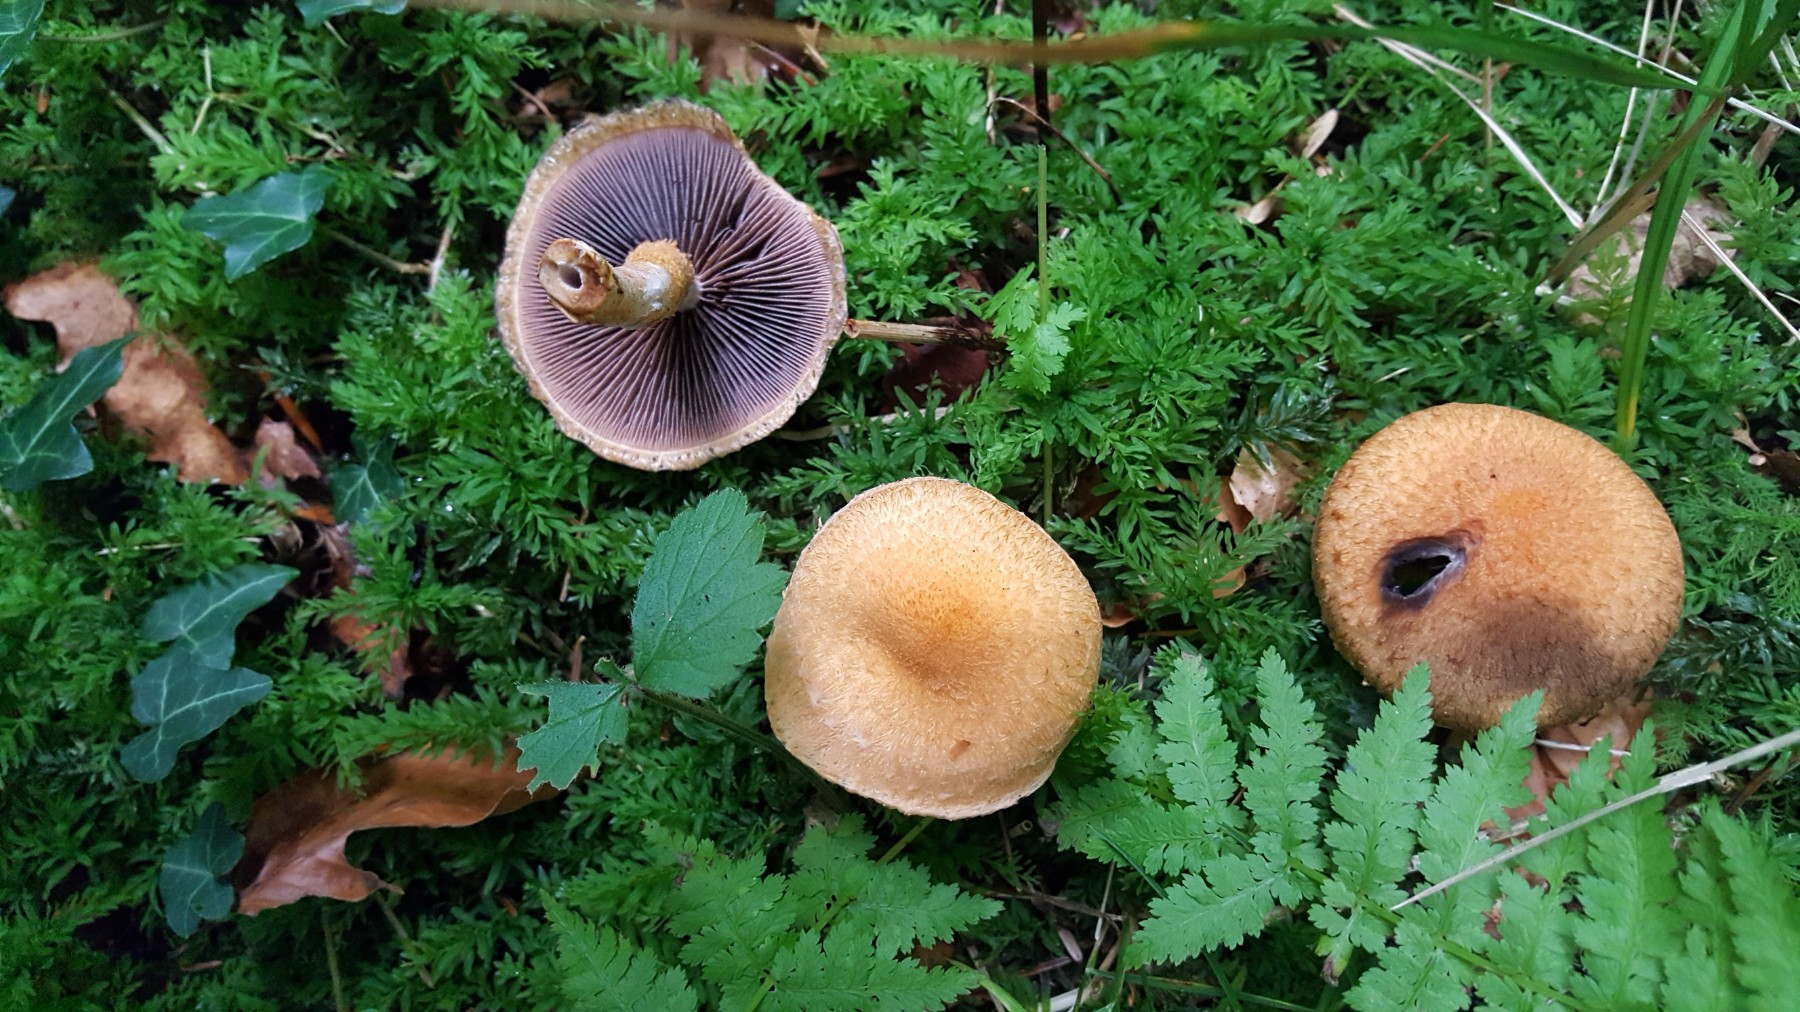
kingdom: Fungi
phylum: Basidiomycota
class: Agaricomycetes
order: Agaricales
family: Psathyrellaceae
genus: Lacrymaria
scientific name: Lacrymaria pyrotricha
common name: ildhåret mørkhat
